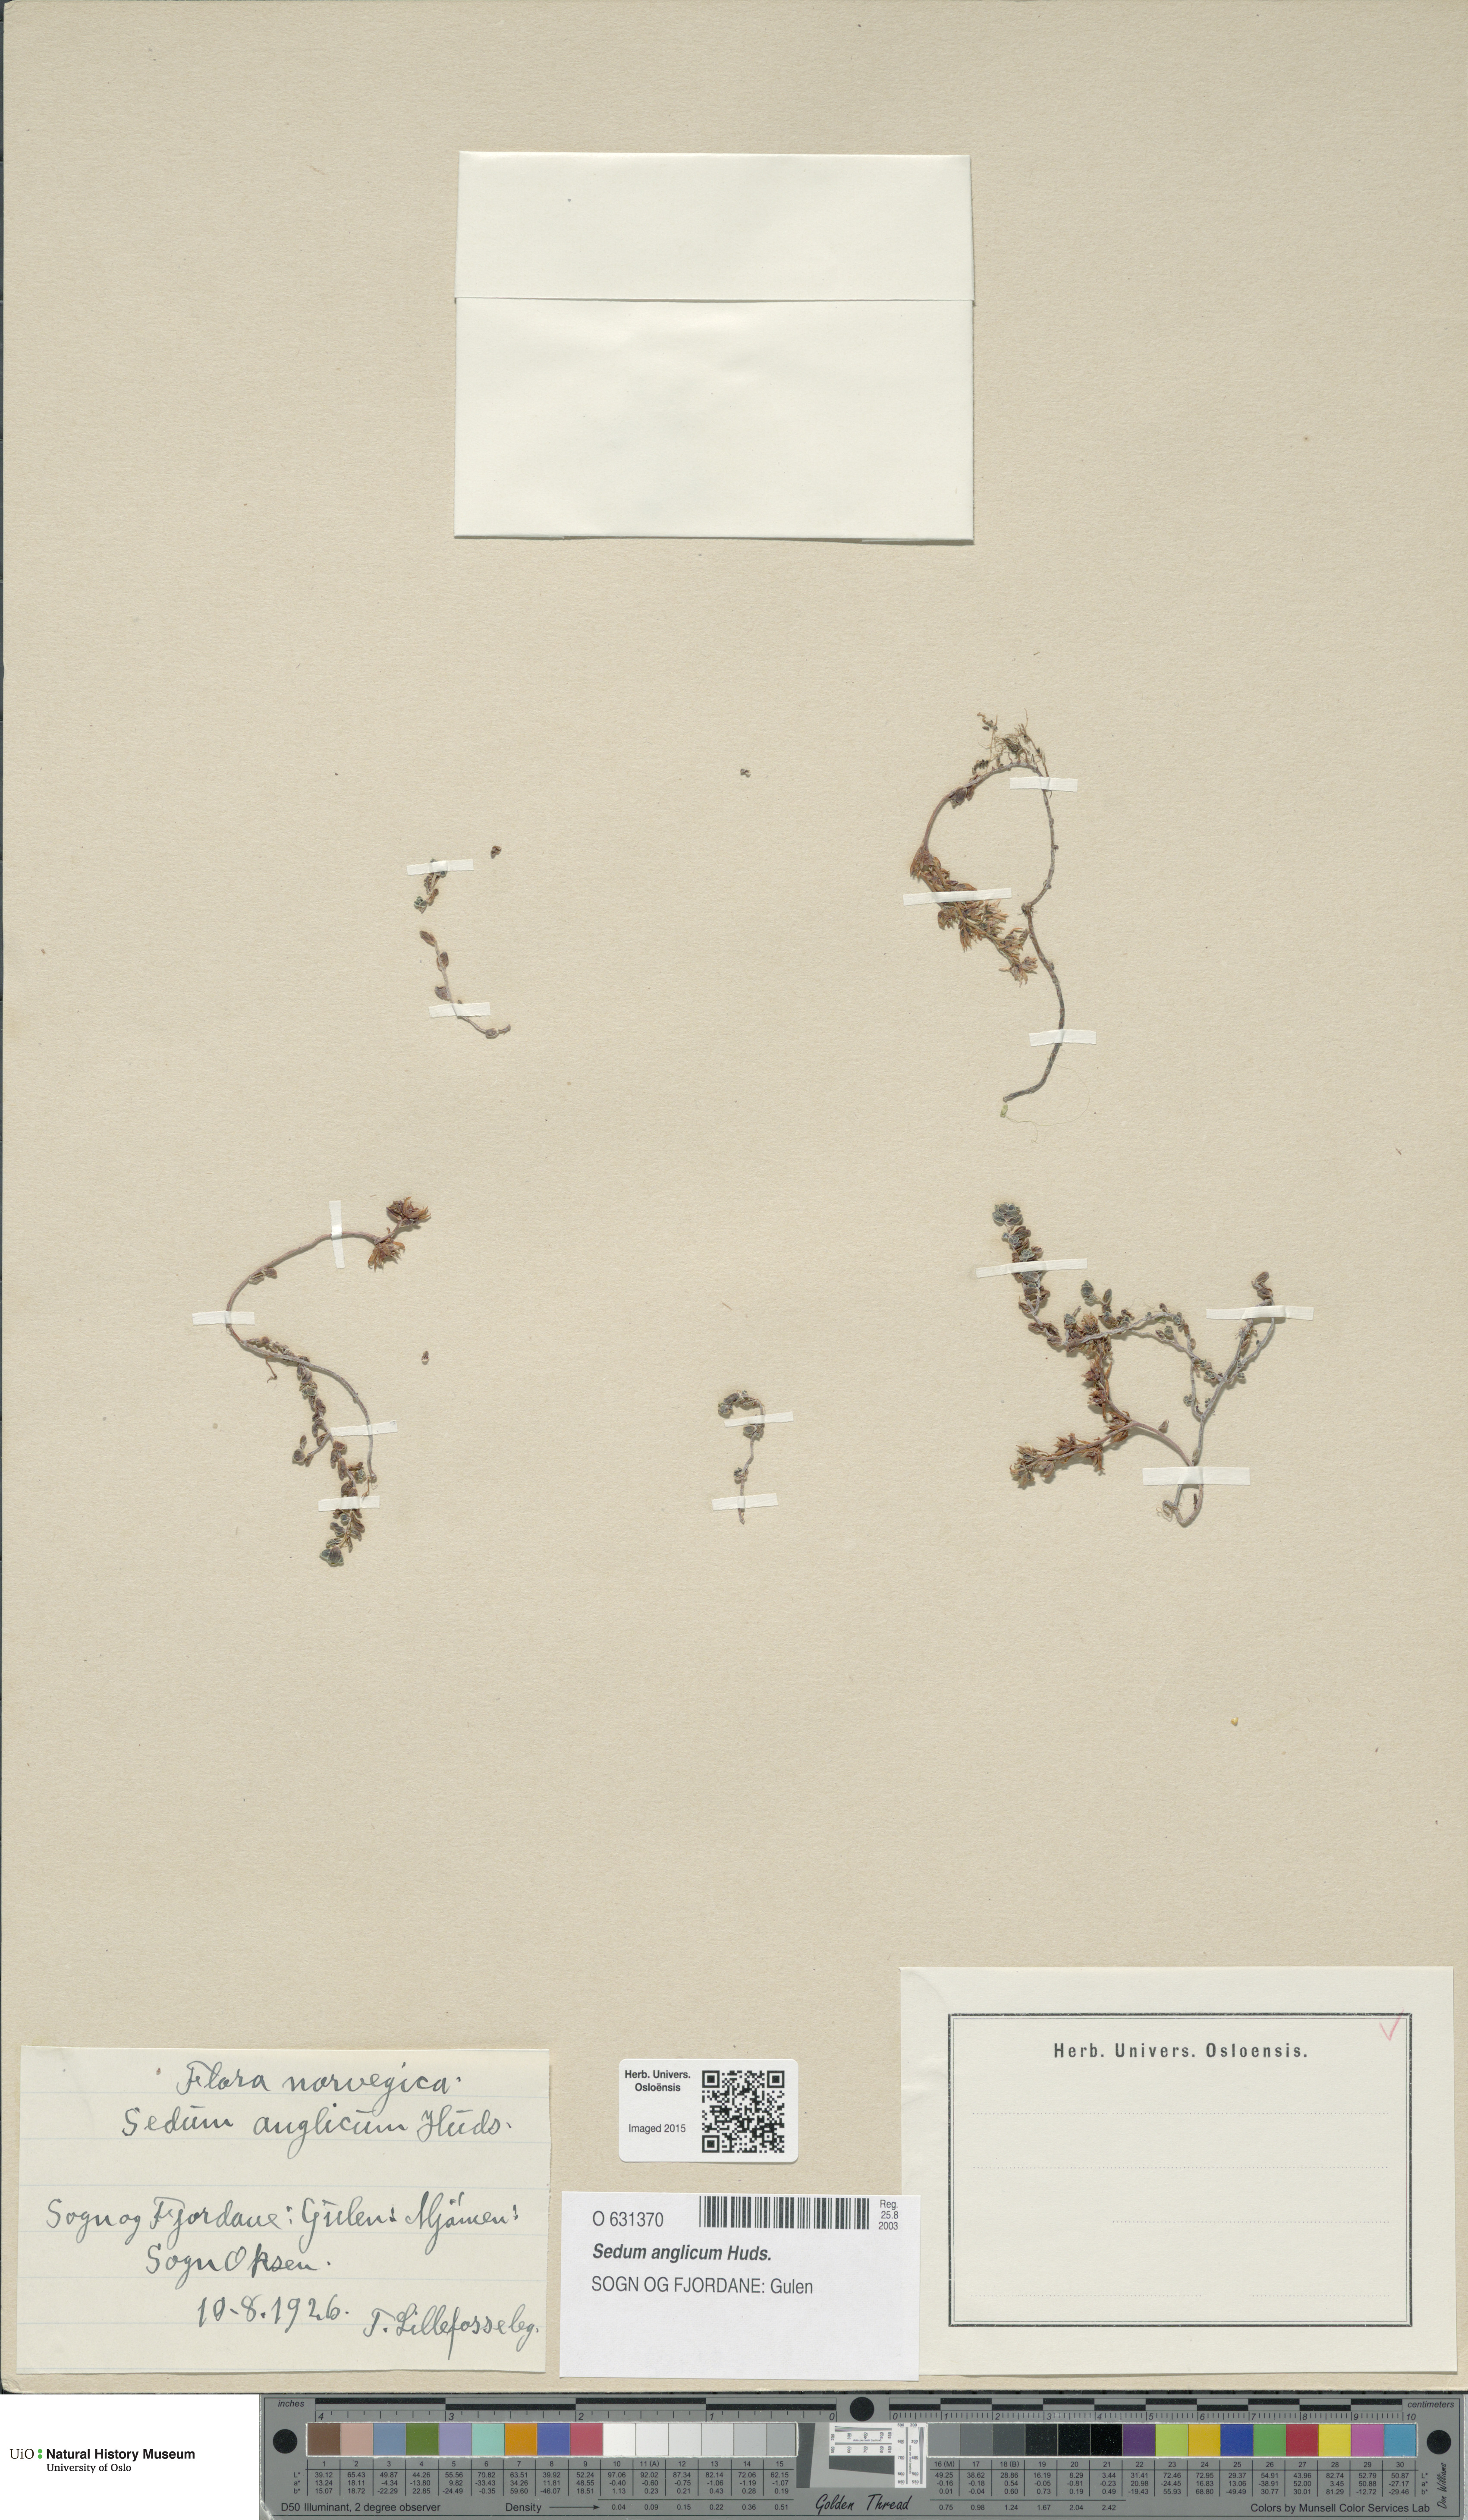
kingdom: Plantae
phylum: Tracheophyta
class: Magnoliopsida
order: Saxifragales
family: Crassulaceae
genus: Sedum
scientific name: Sedum anglicum
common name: English stonecrop
